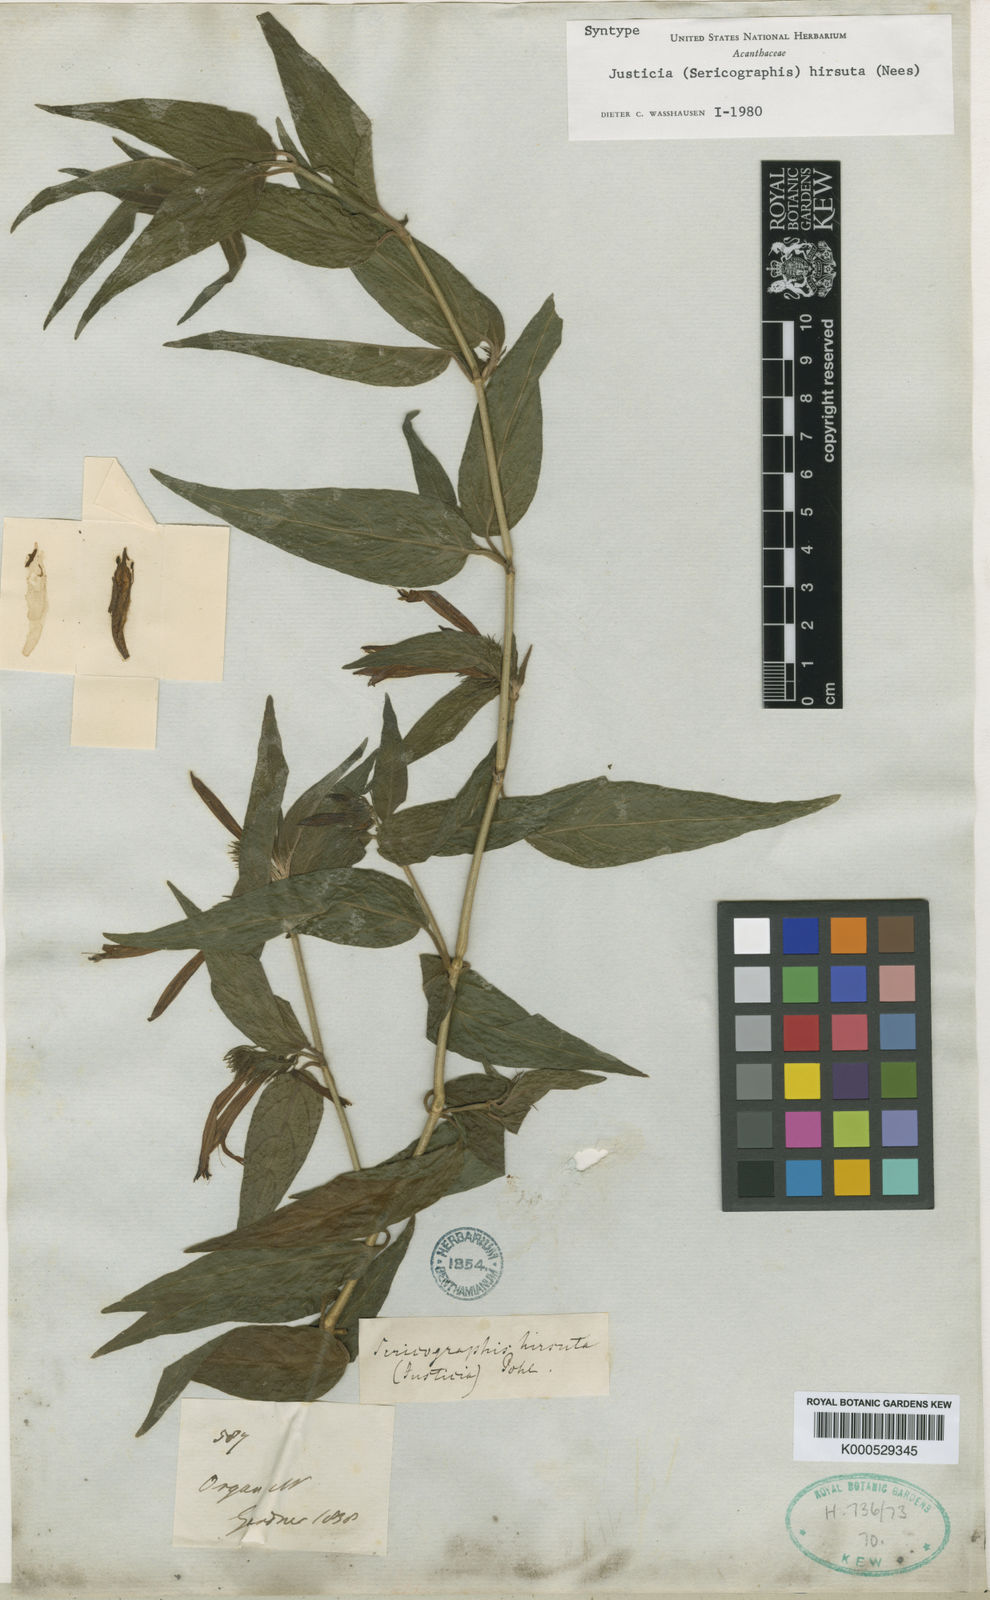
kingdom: Plantae
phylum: Tracheophyta
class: Magnoliopsida
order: Lamiales
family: Acanthaceae
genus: Justicia
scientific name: Justicia monticola
